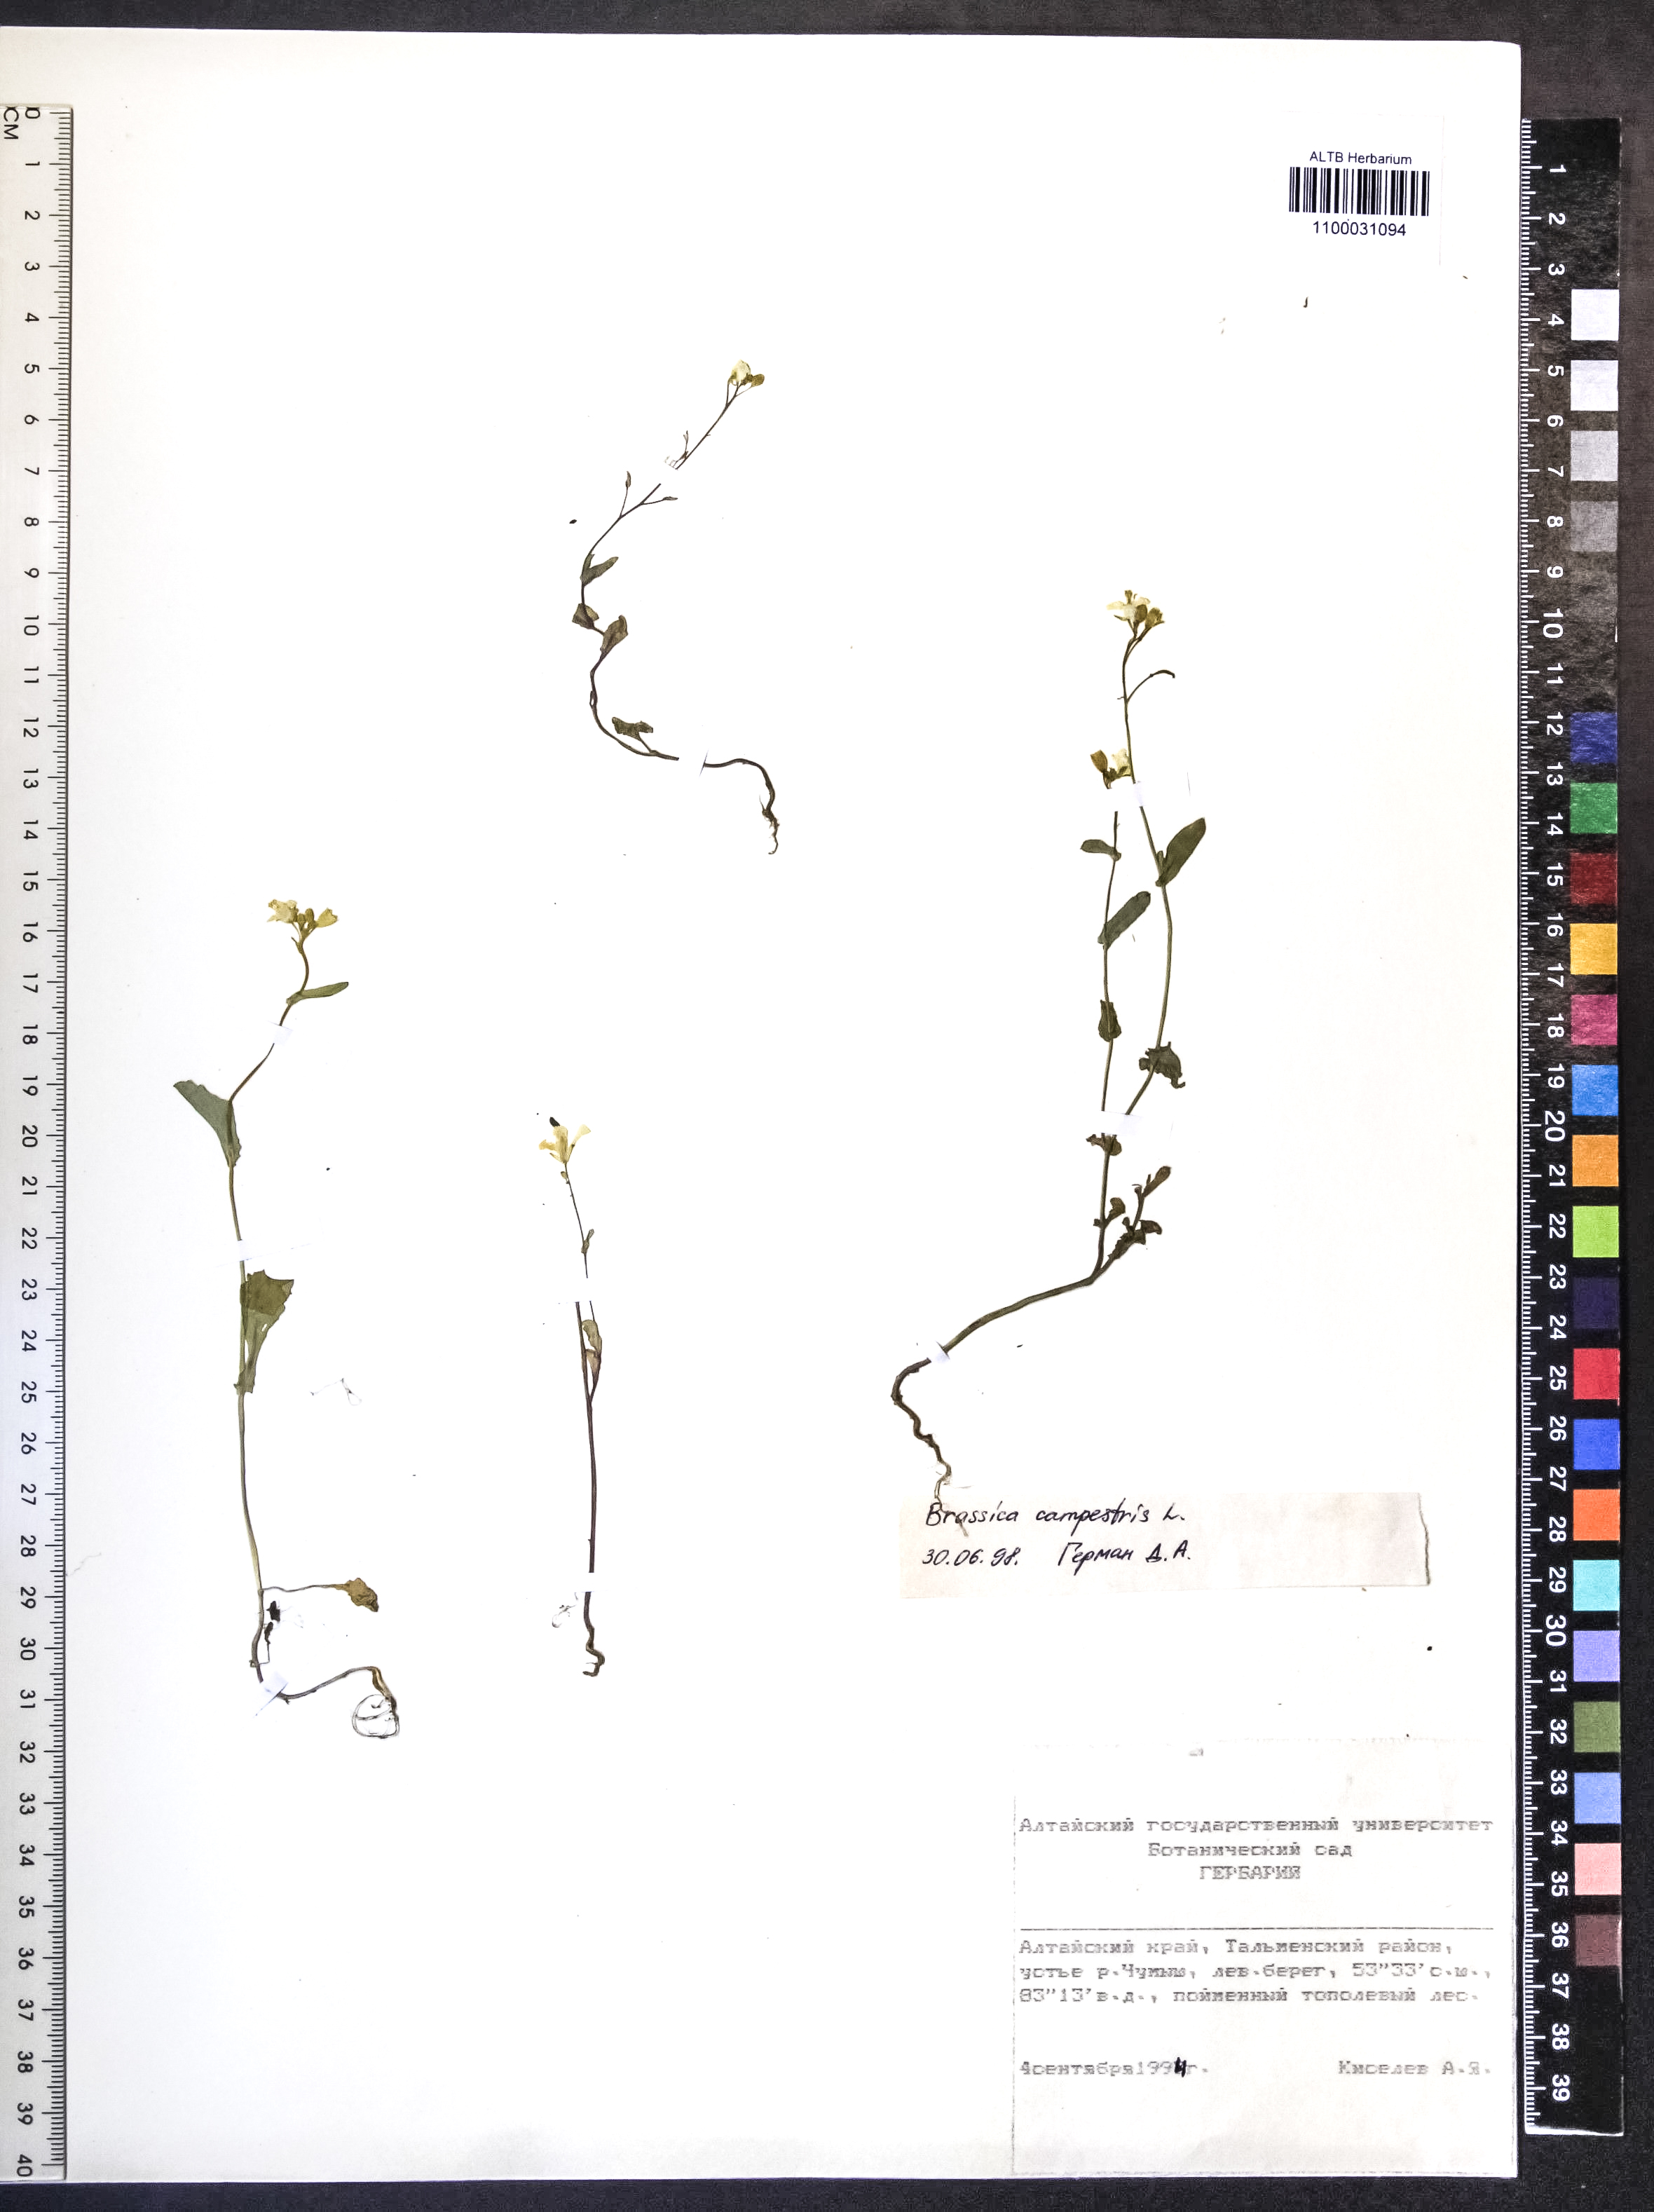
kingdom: Plantae
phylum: Tracheophyta
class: Magnoliopsida
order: Brassicales
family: Brassicaceae
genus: Brassica
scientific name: Brassica rapa
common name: Field mustard
